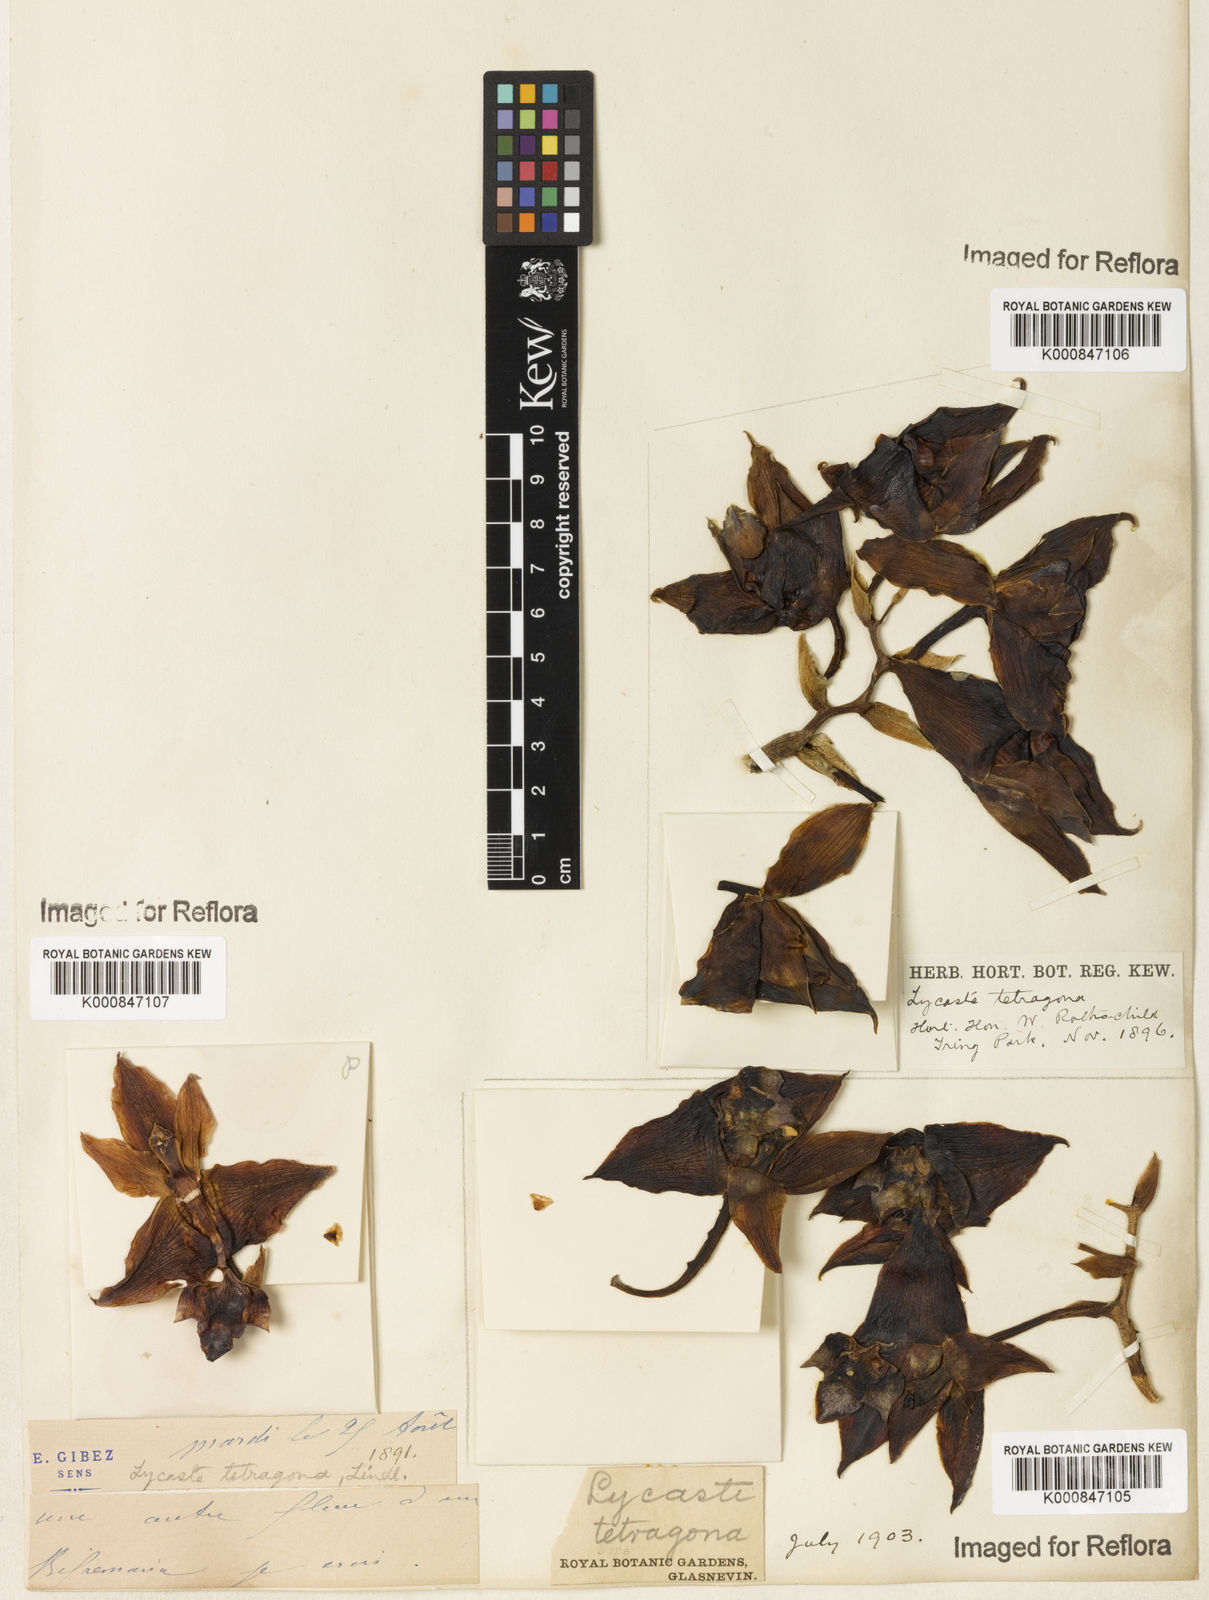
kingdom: Plantae
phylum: Tracheophyta
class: Liliopsida
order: Asparagales
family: Orchidaceae
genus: Bifrenaria
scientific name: Bifrenaria tetragona
